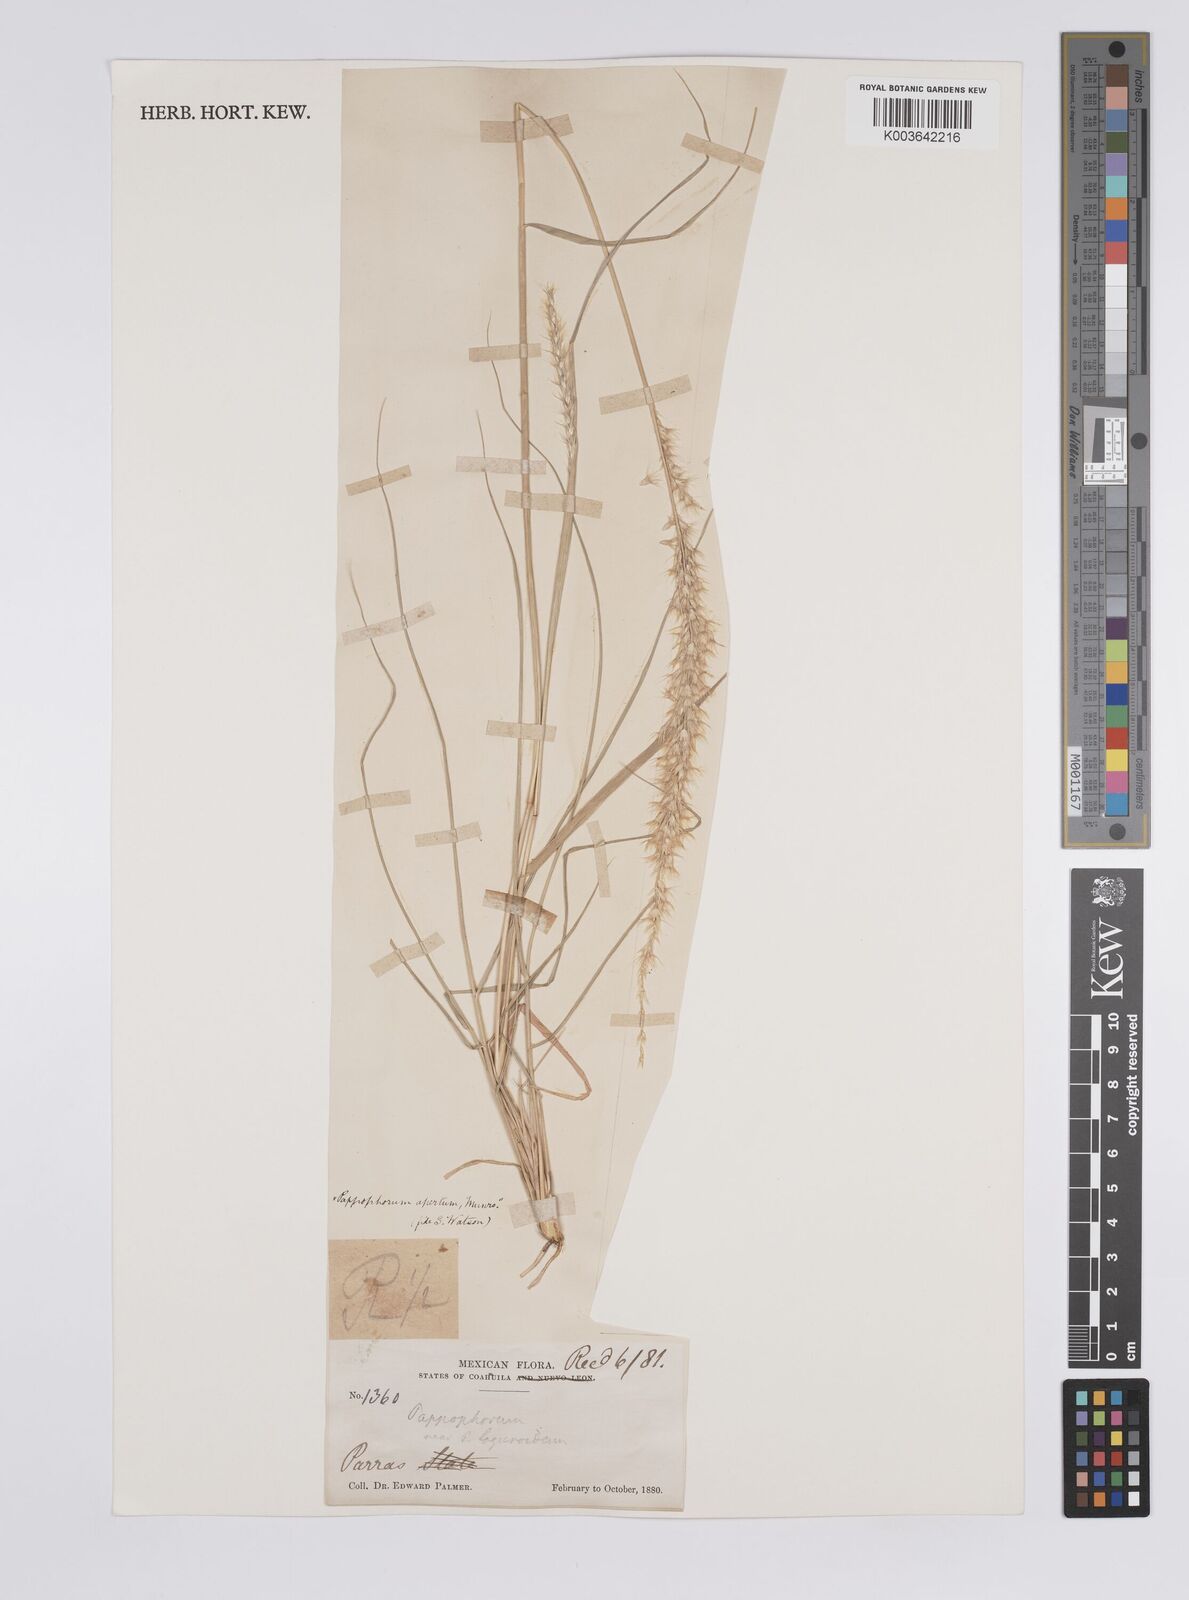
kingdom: Plantae
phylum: Tracheophyta
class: Liliopsida
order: Poales
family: Poaceae
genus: Pappophorum
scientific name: Pappophorum mucronulatum
